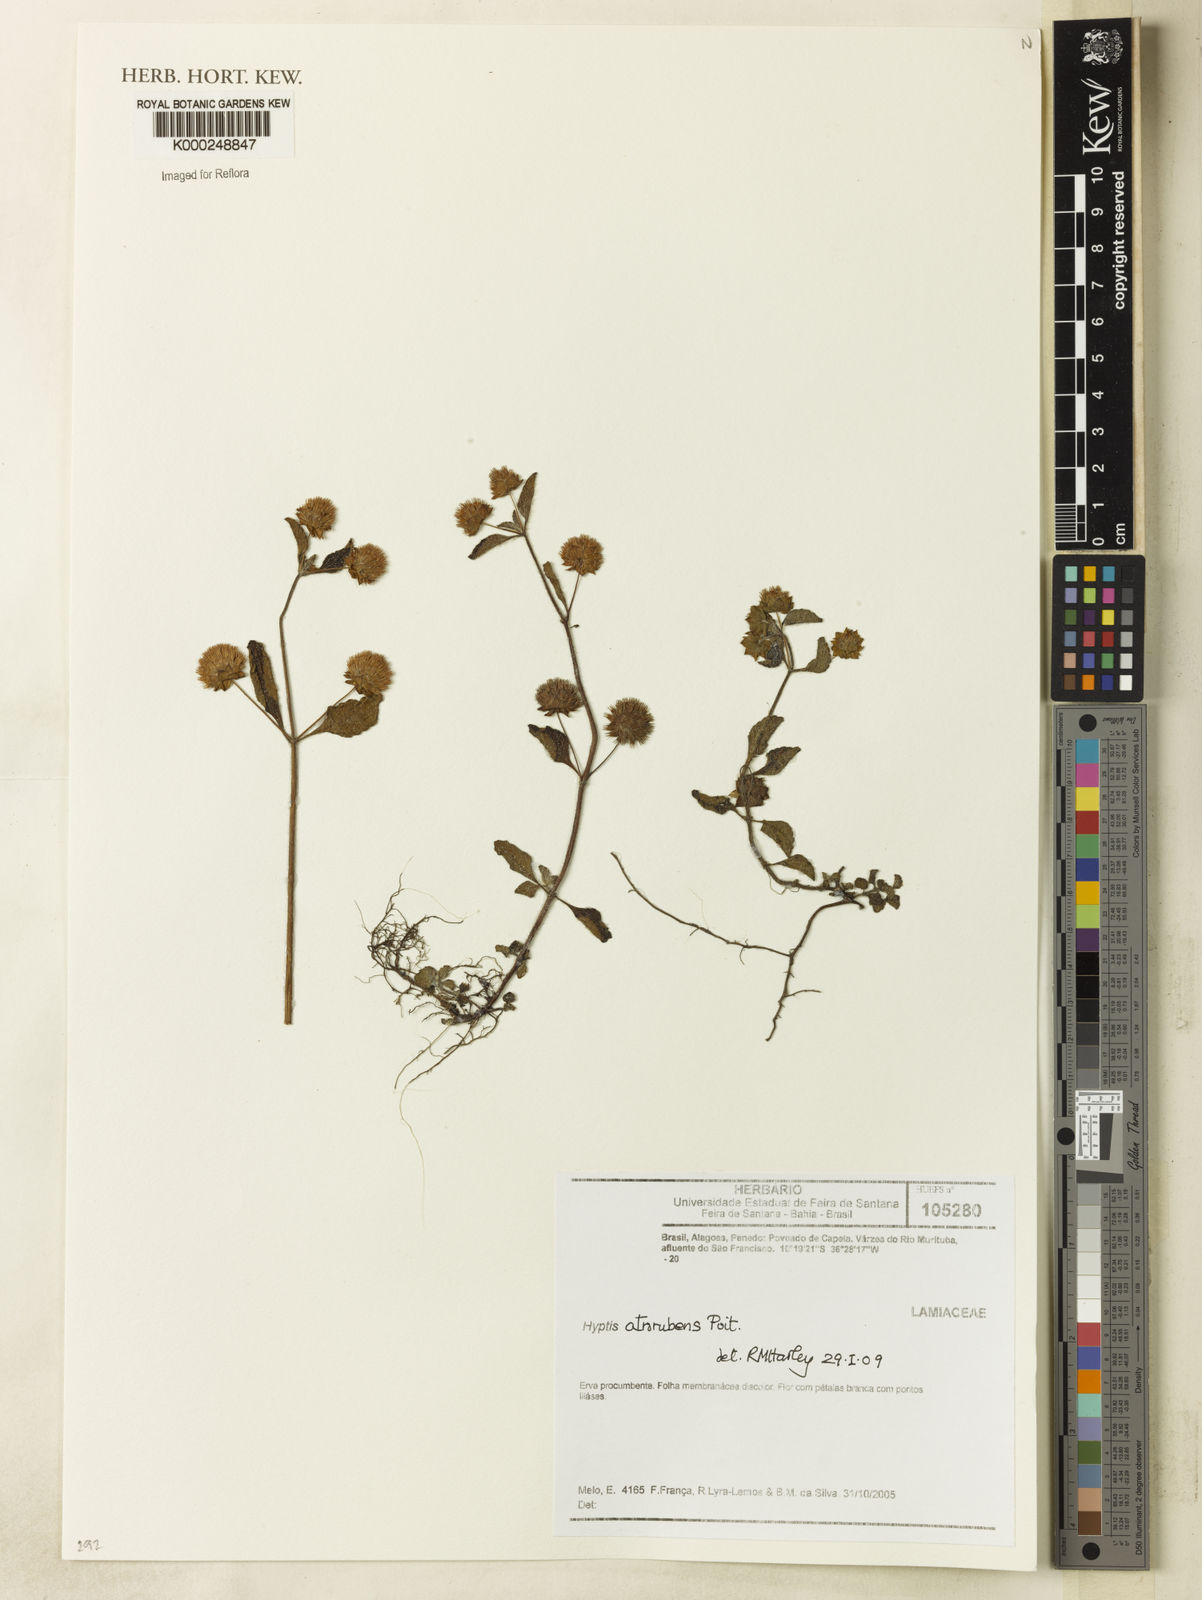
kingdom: Plantae
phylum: Tracheophyta
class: Magnoliopsida
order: Lamiales
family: Lamiaceae
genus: Hyptis
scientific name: Hyptis atrorubens
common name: Lanmant
